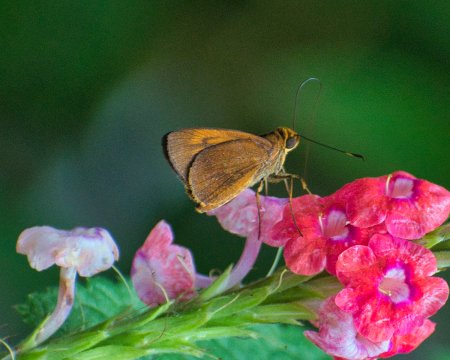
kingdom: Animalia
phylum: Arthropoda
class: Insecta
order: Lepidoptera
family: Hesperiidae
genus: Synapte
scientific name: Synapte silius
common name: Rain-forest Faceted-Skipper
